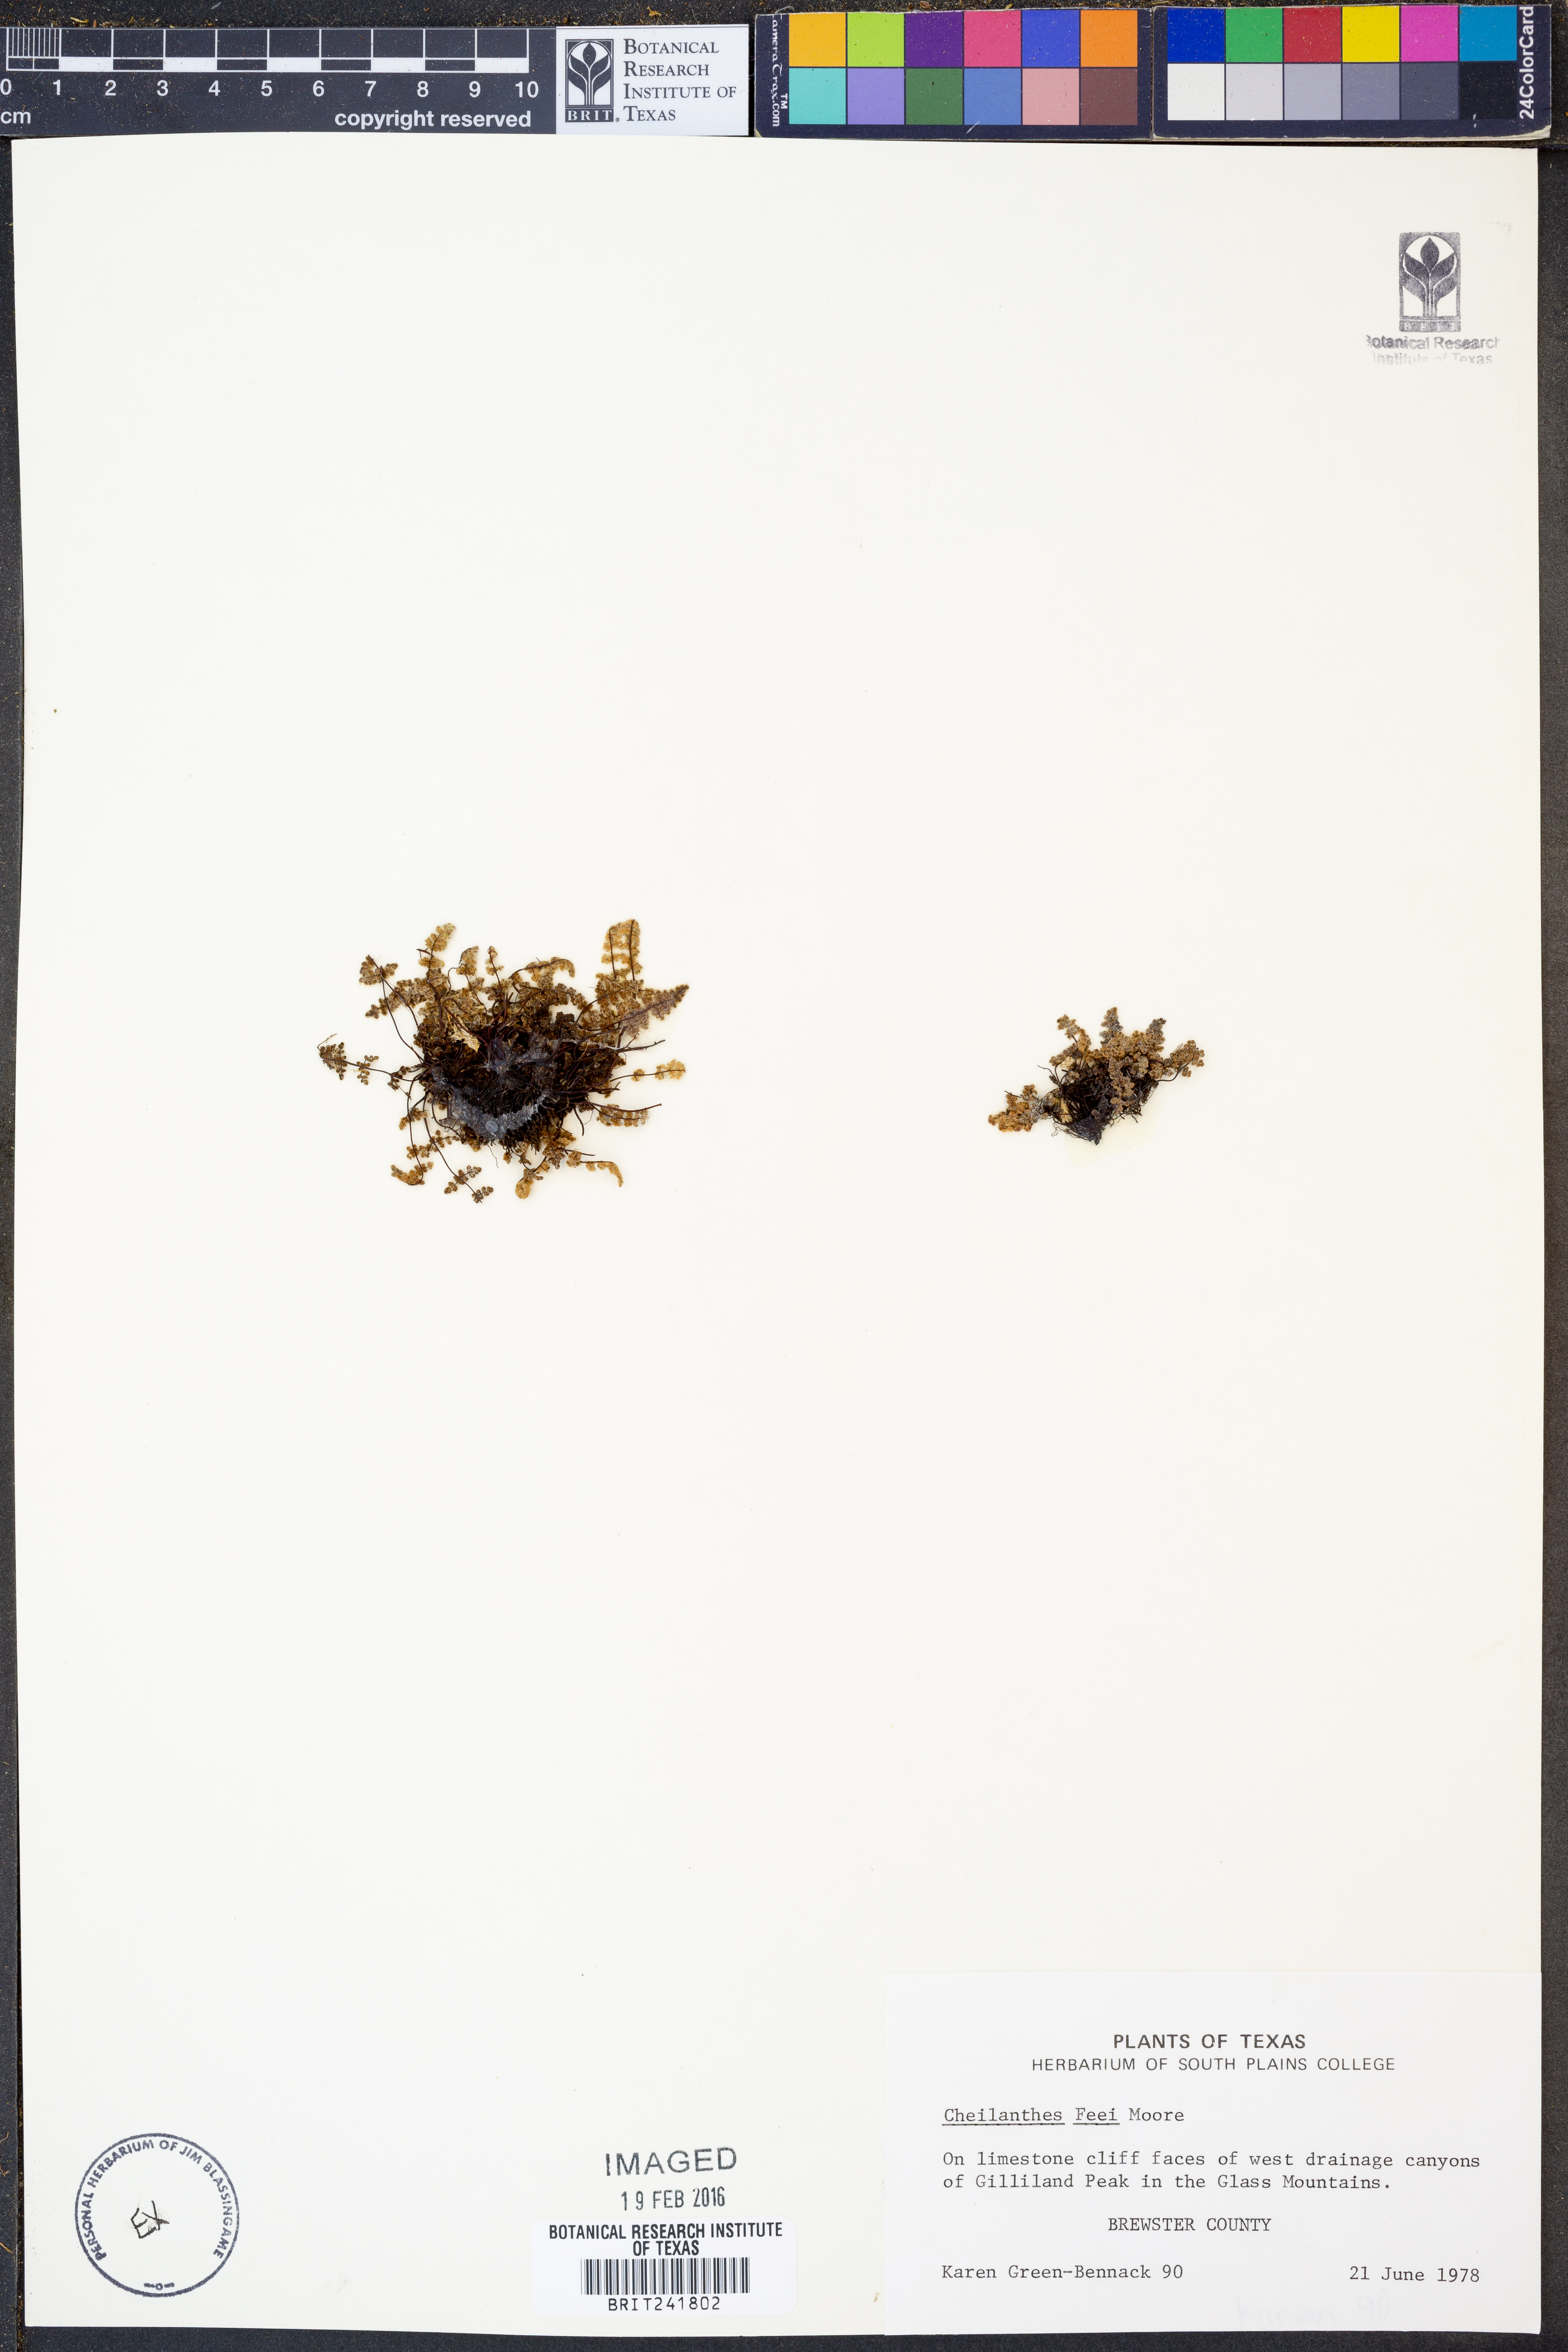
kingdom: Plantae
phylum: Tracheophyta
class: Polypodiopsida
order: Polypodiales
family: Pteridaceae
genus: Myriopteris
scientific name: Myriopteris gracilis
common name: Fee's lip fern
